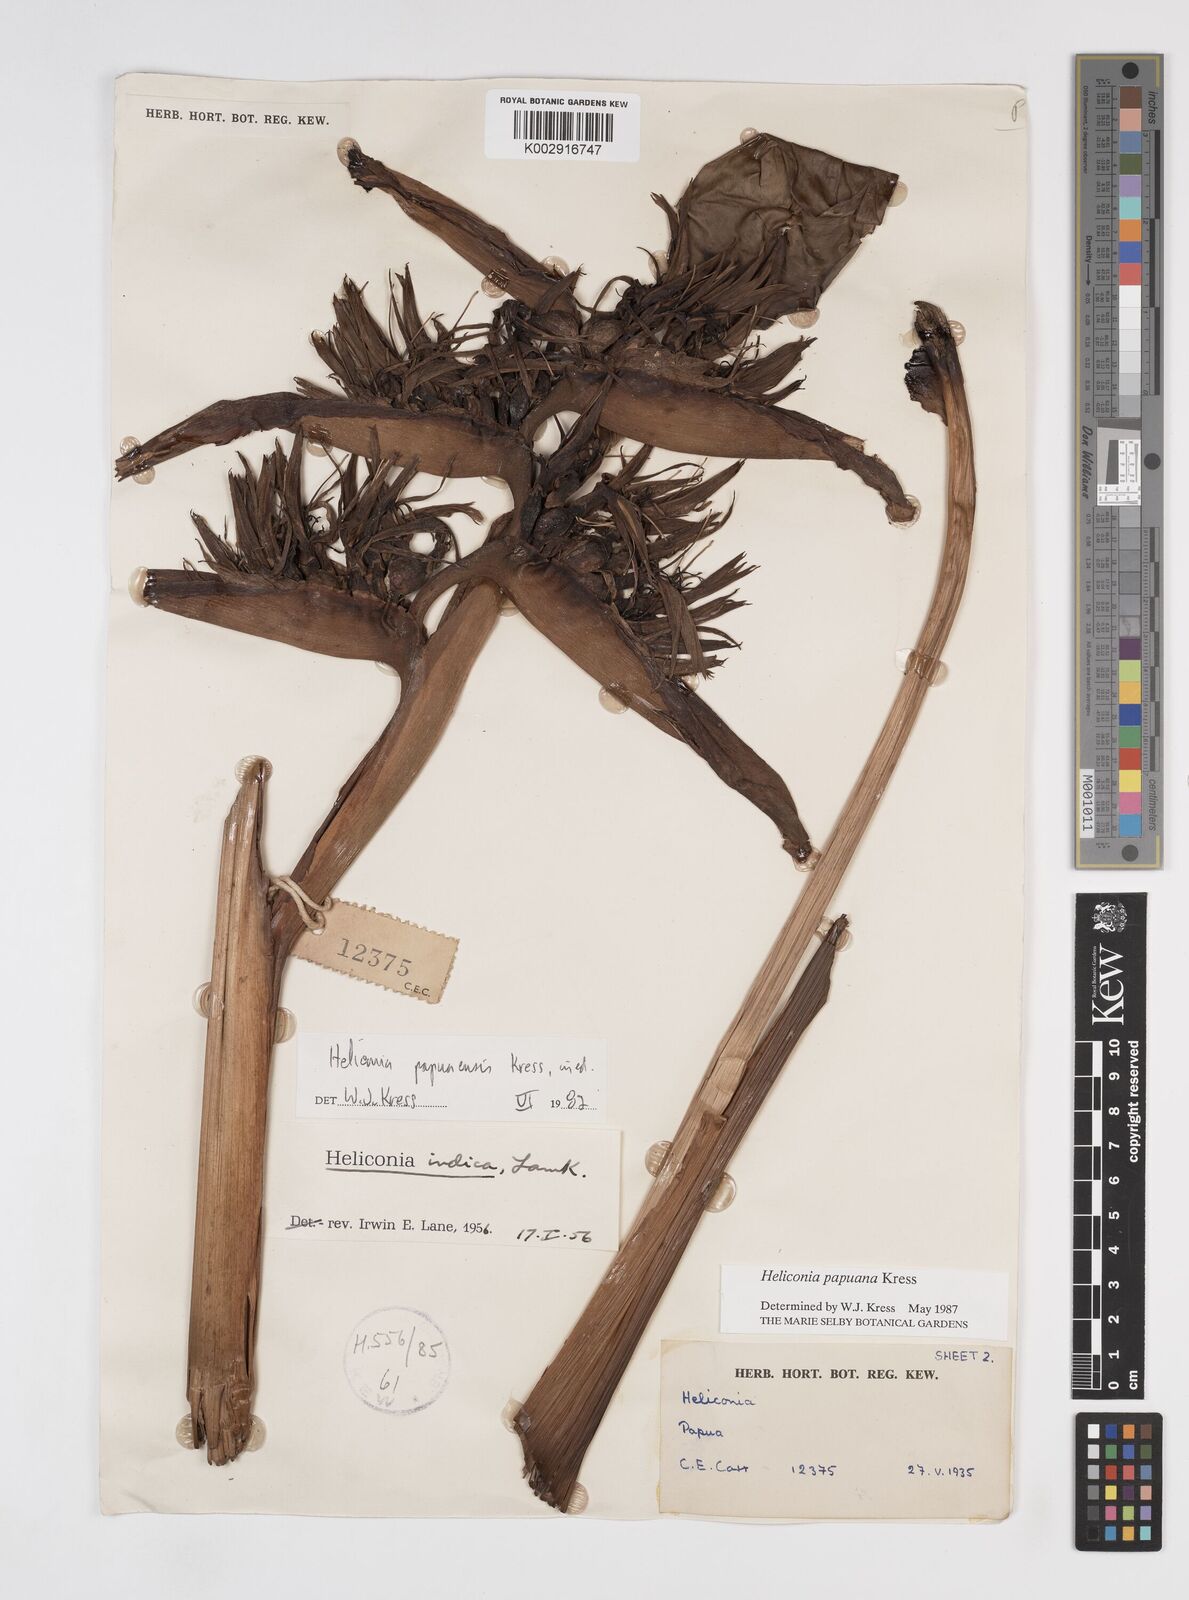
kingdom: Plantae
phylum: Tracheophyta
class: Liliopsida
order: Zingiberales
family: Heliconiaceae
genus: Heliconia
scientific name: Heliconia papuana
